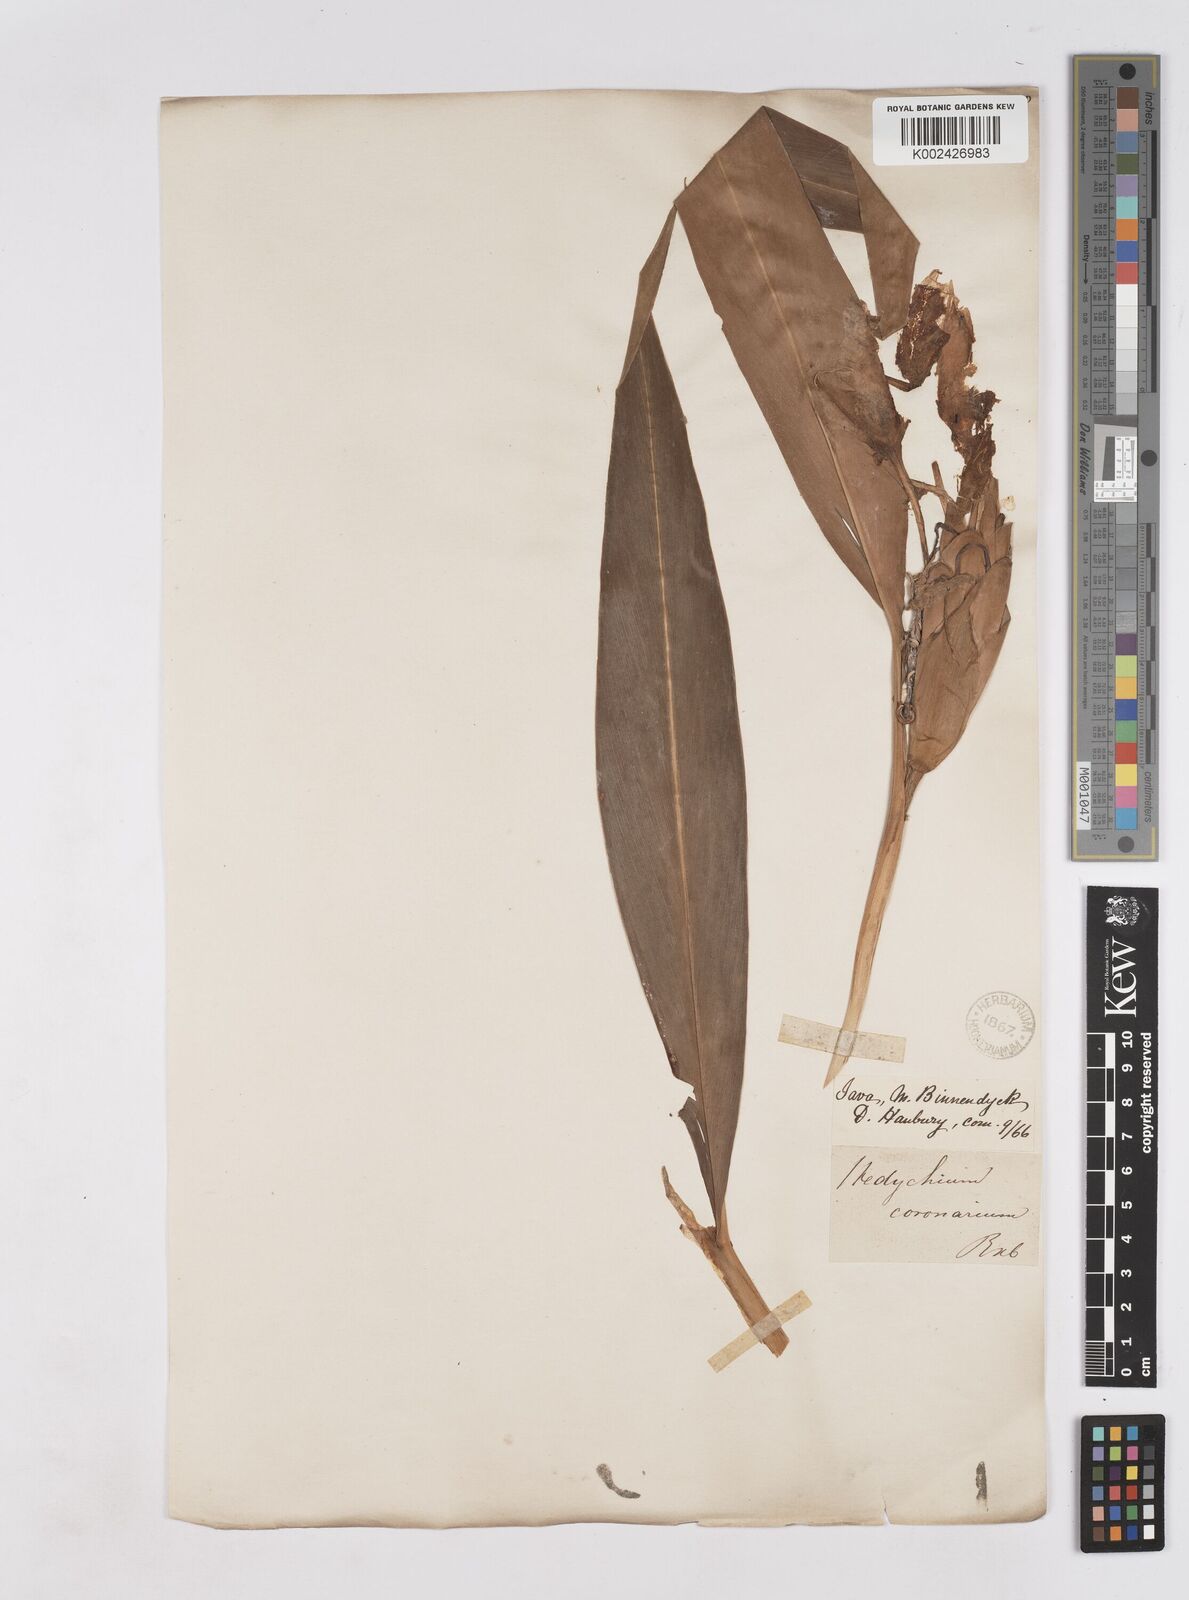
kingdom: Plantae
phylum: Tracheophyta
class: Liliopsida
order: Zingiberales
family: Zingiberaceae
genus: Hedychium
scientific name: Hedychium coronarium
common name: White garland-lily
